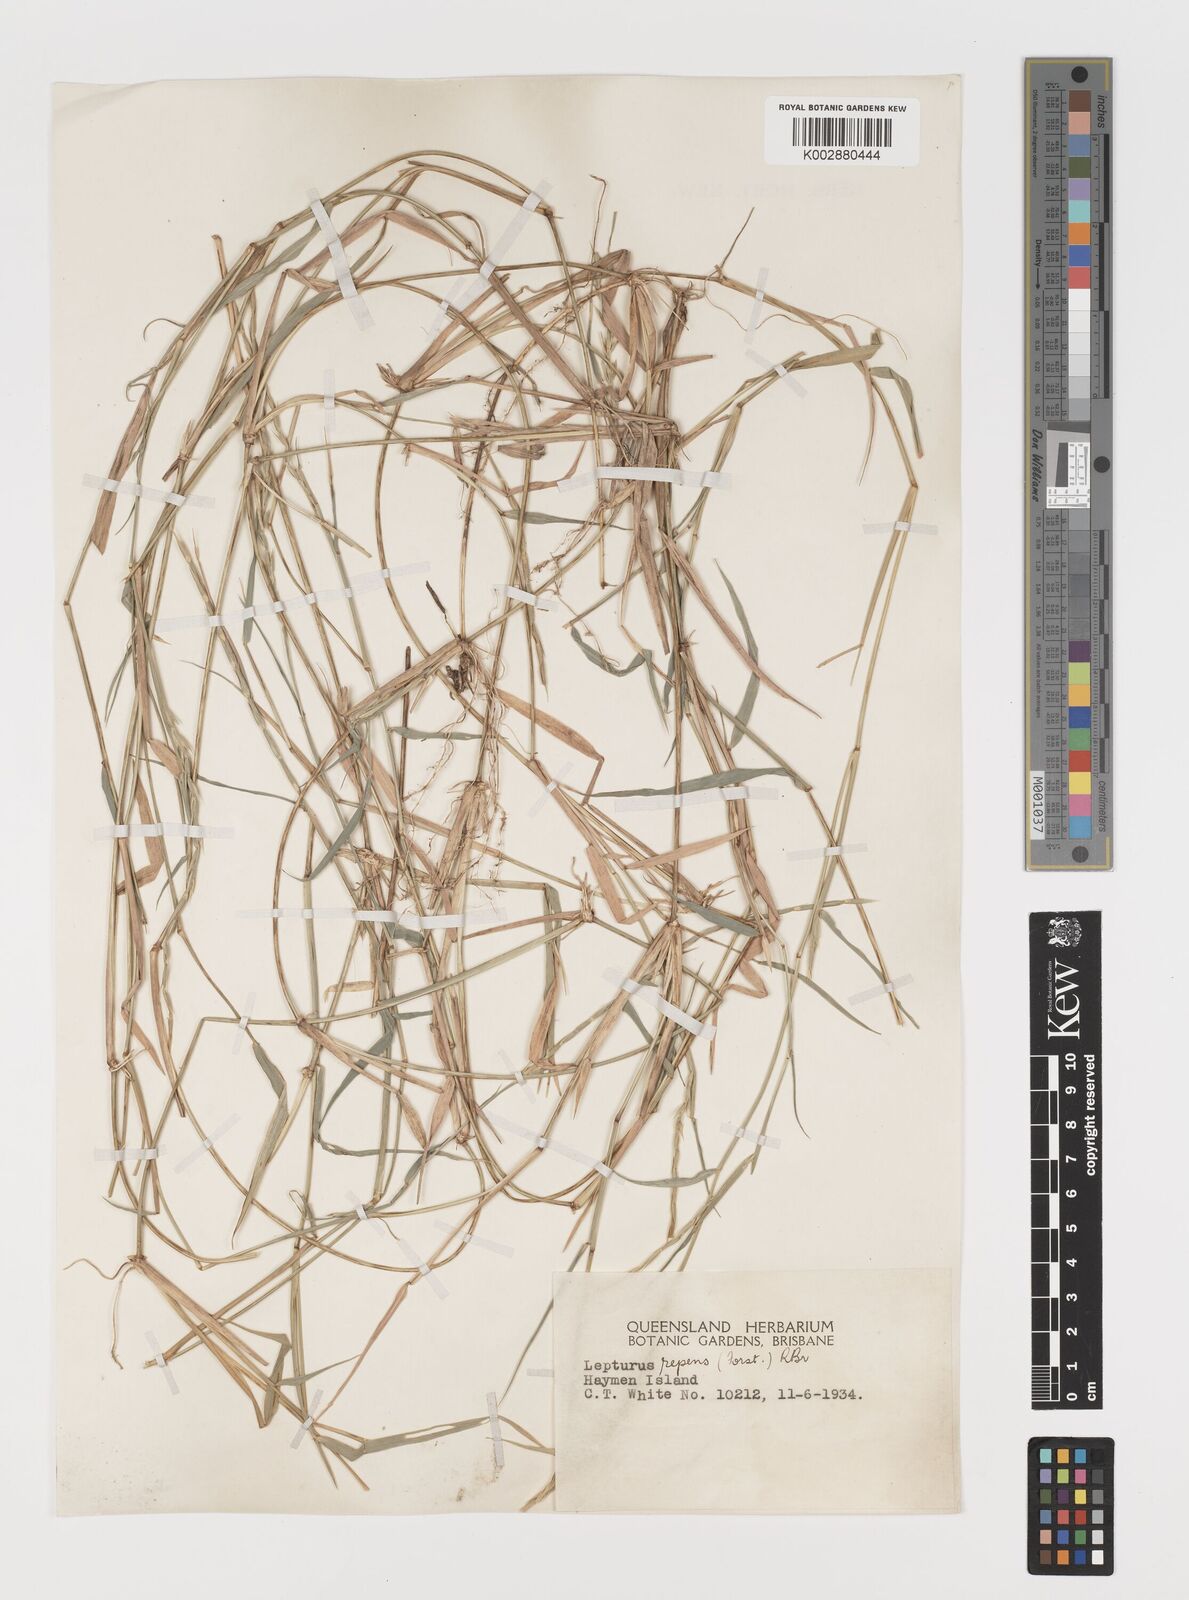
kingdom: Plantae
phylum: Tracheophyta
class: Liliopsida
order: Poales
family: Poaceae
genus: Lepturus
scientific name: Lepturus repens
